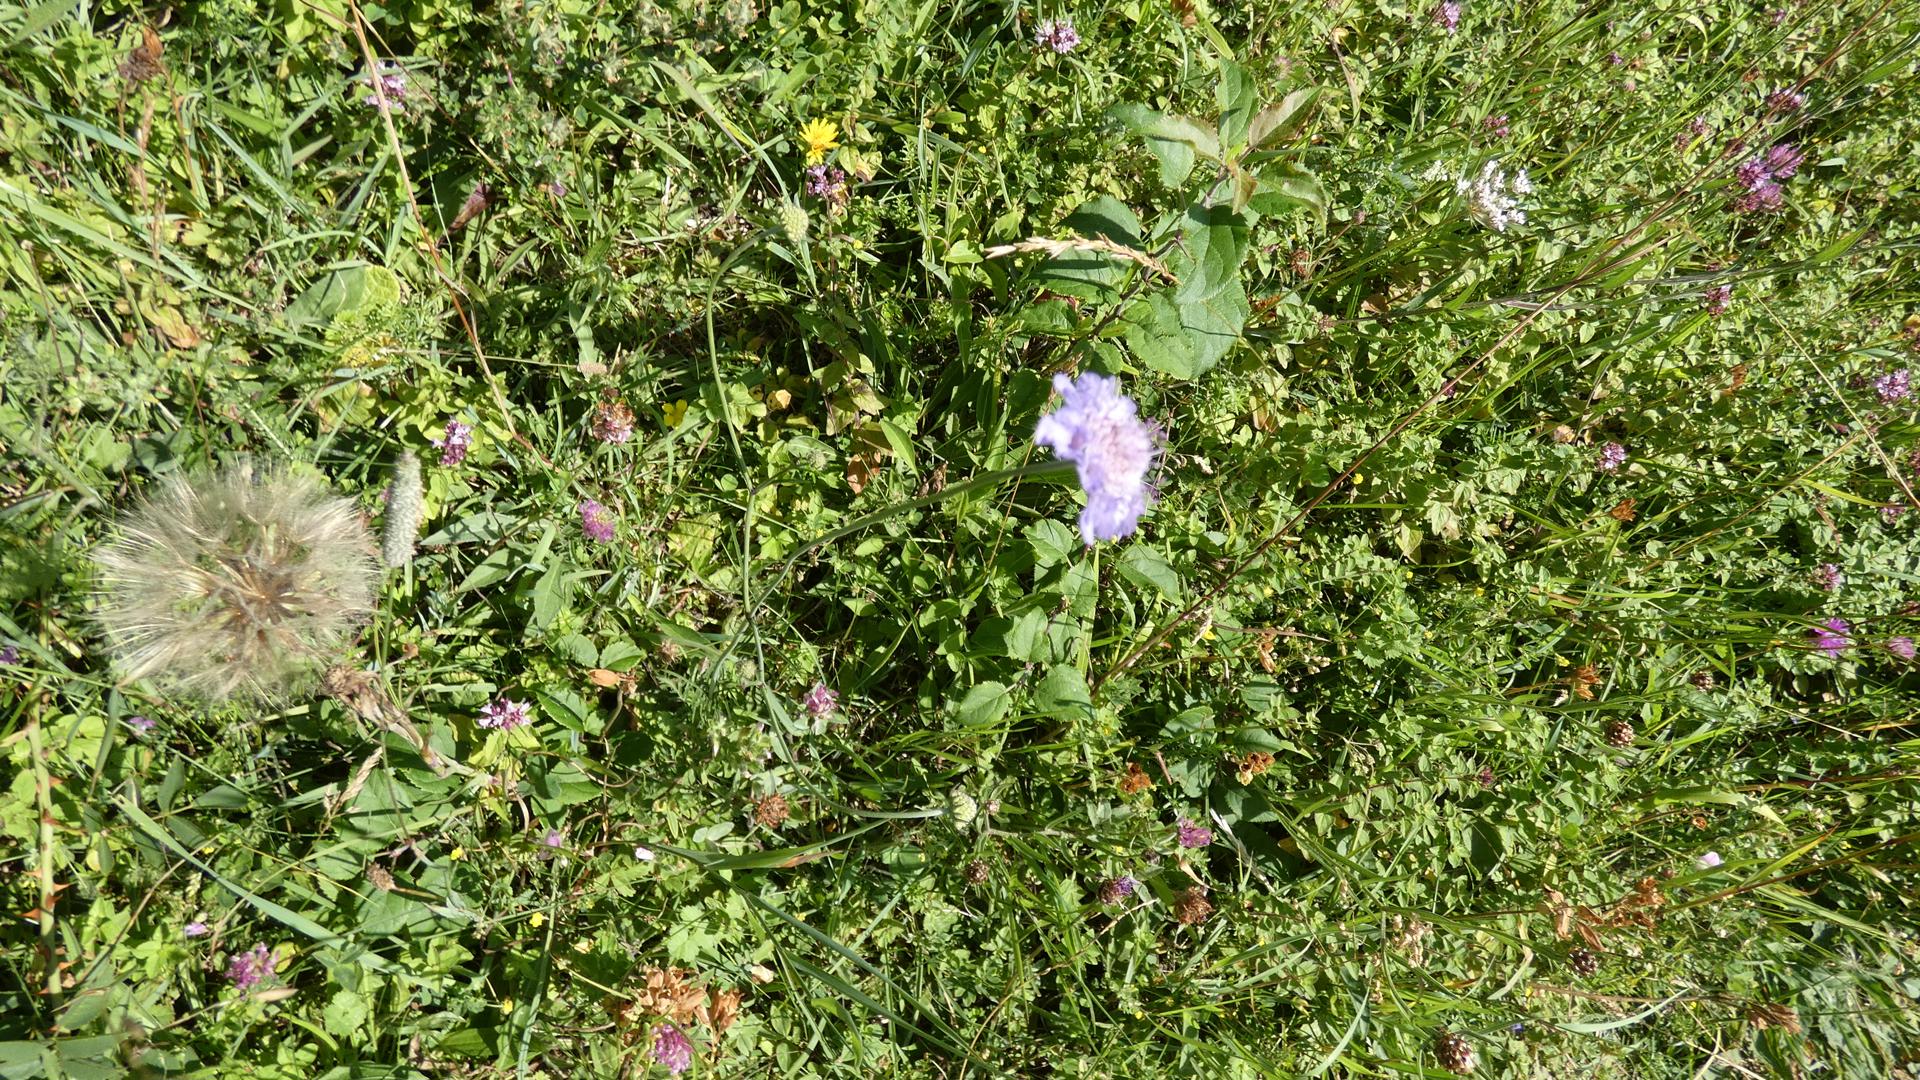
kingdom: Plantae
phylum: Tracheophyta
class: Magnoliopsida
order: Dipsacales
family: Caprifoliaceae
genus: Scabiosa
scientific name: Scabiosa columbaria
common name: Due-skabiose
